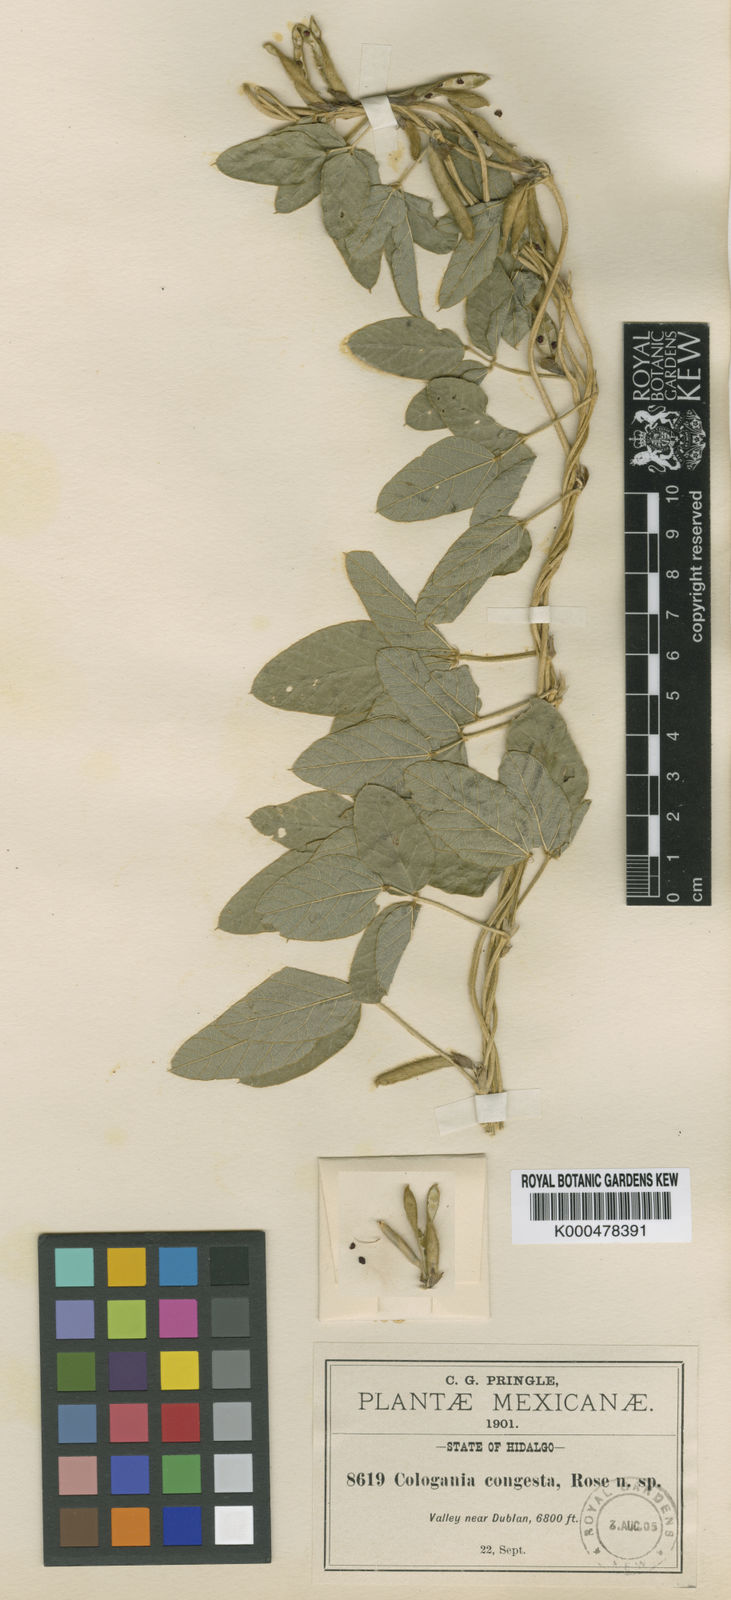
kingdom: Plantae
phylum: Tracheophyta
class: Magnoliopsida
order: Fabales
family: Fabaceae
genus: Cologania
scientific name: Cologania broussonetii
